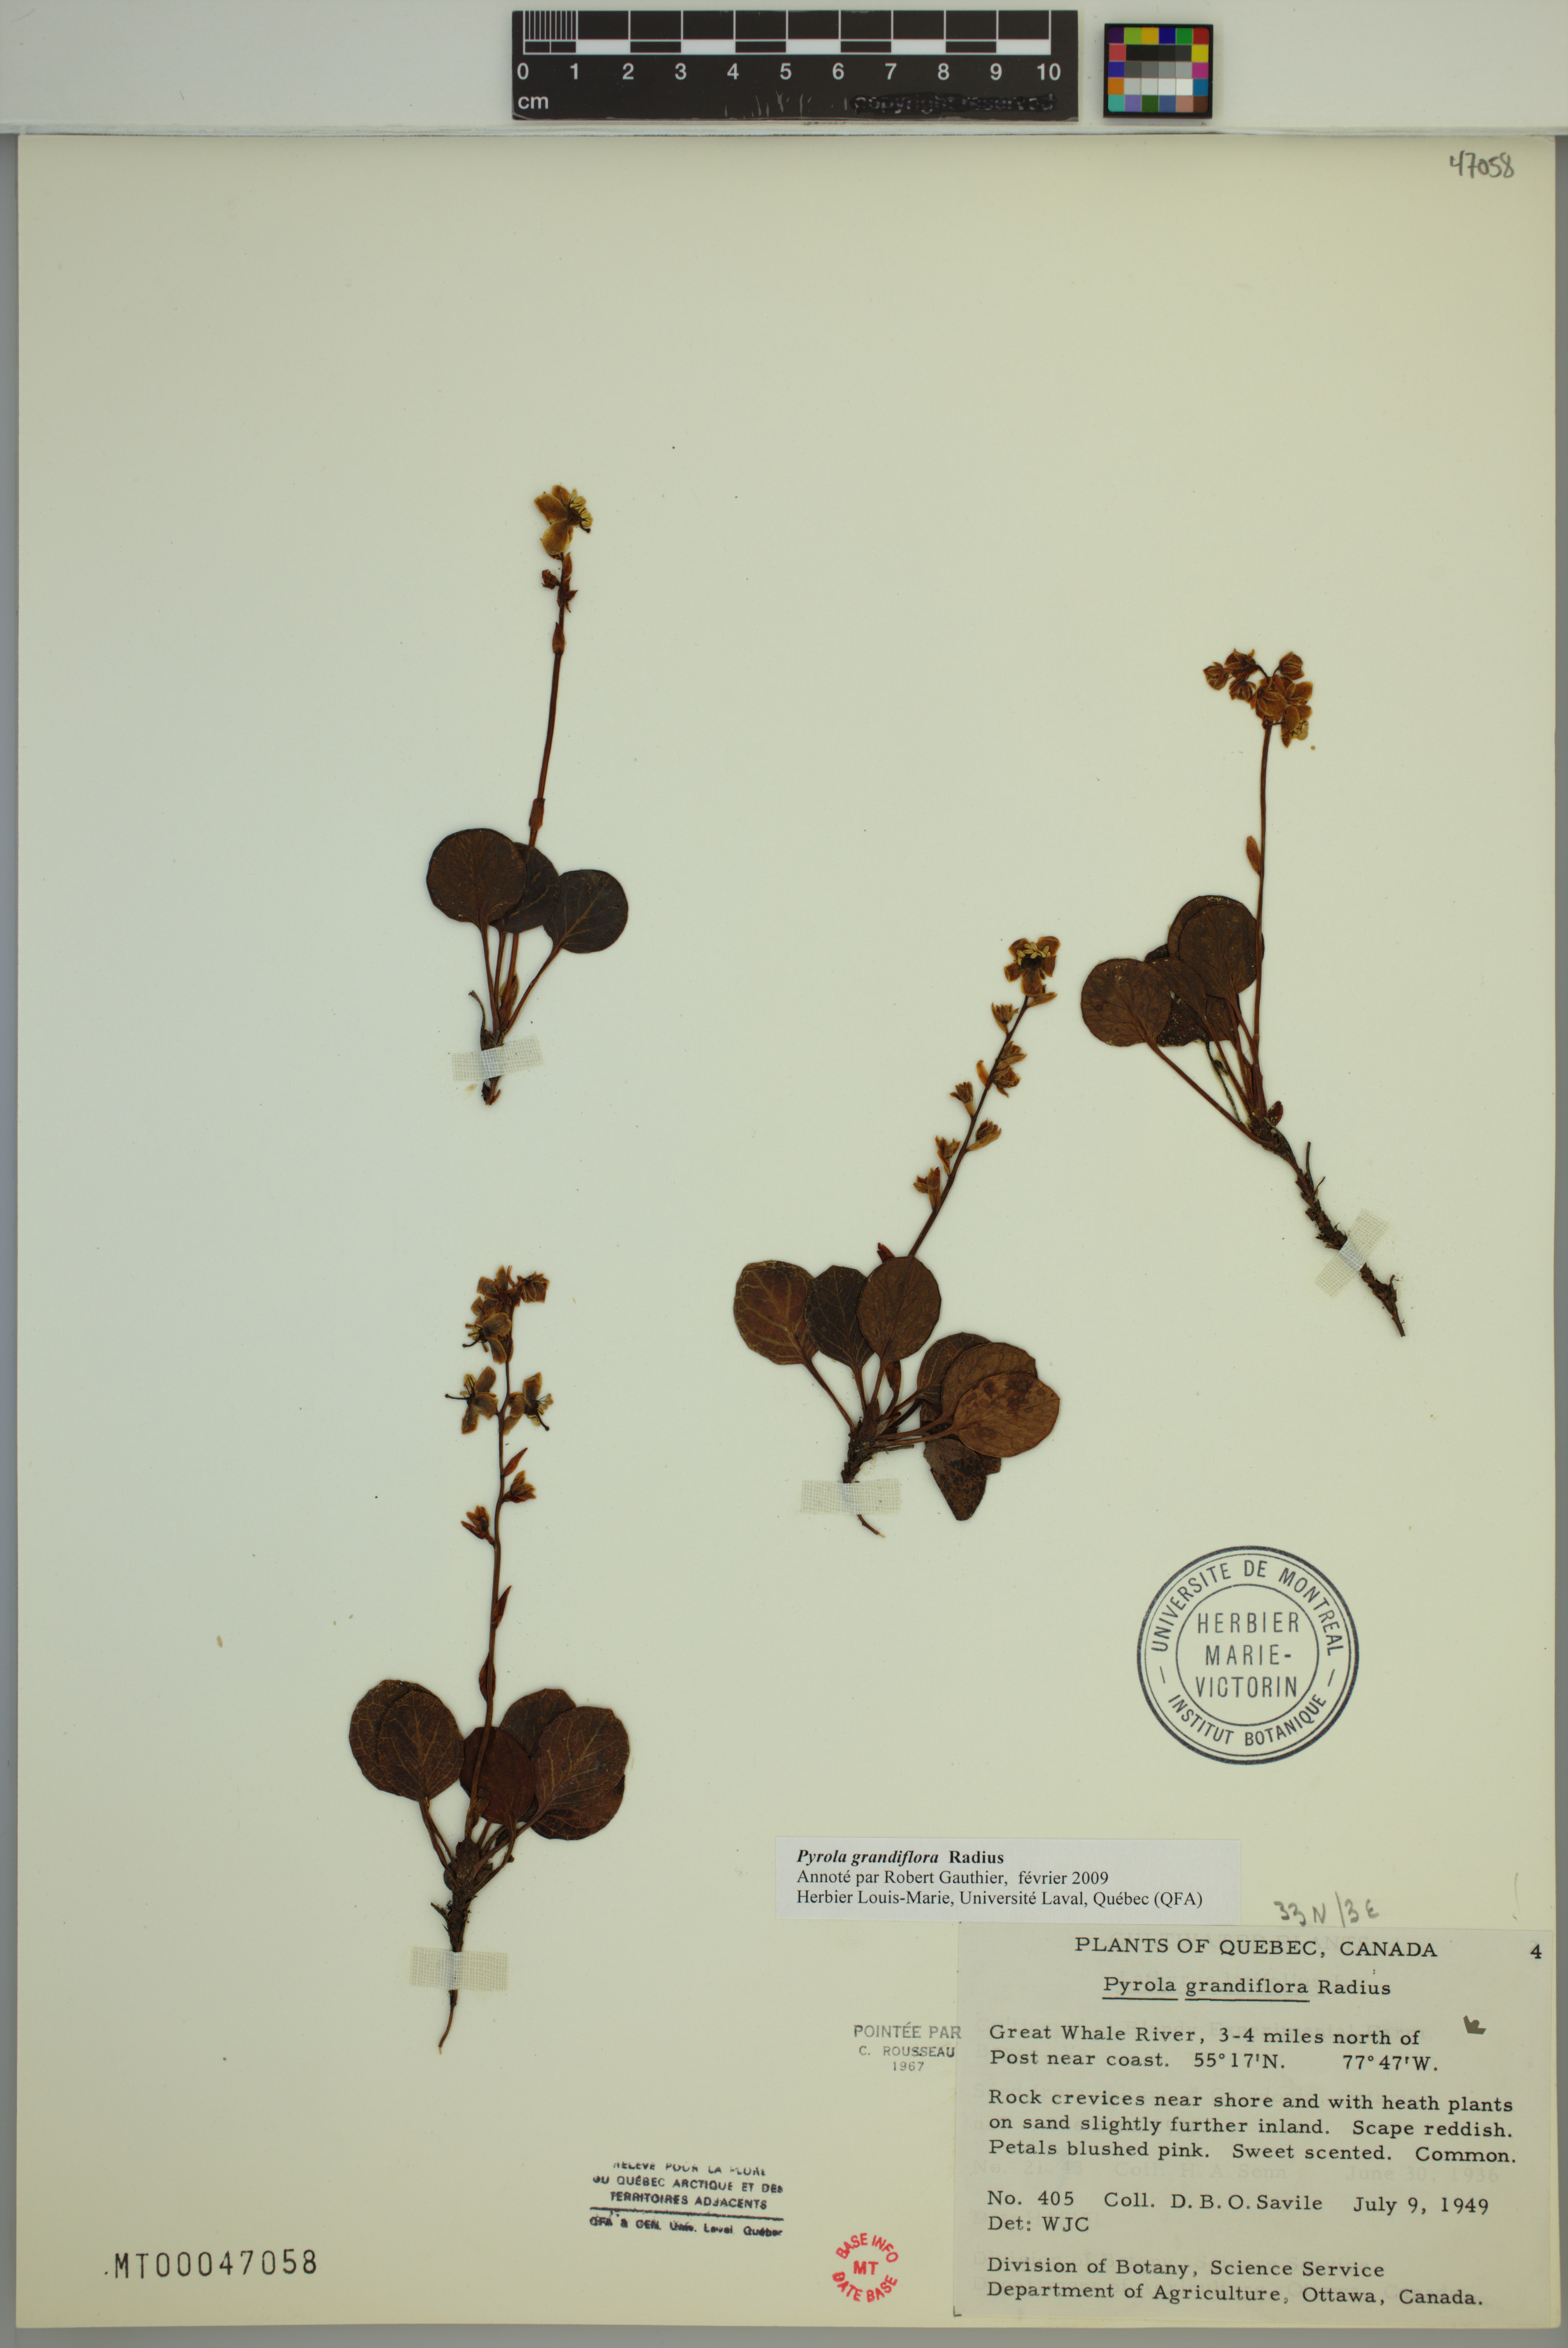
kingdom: Plantae
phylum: Tracheophyta
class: Magnoliopsida
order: Ericales
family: Ericaceae
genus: Pyrola
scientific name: Pyrola grandiflora
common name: Arctic pyrola
